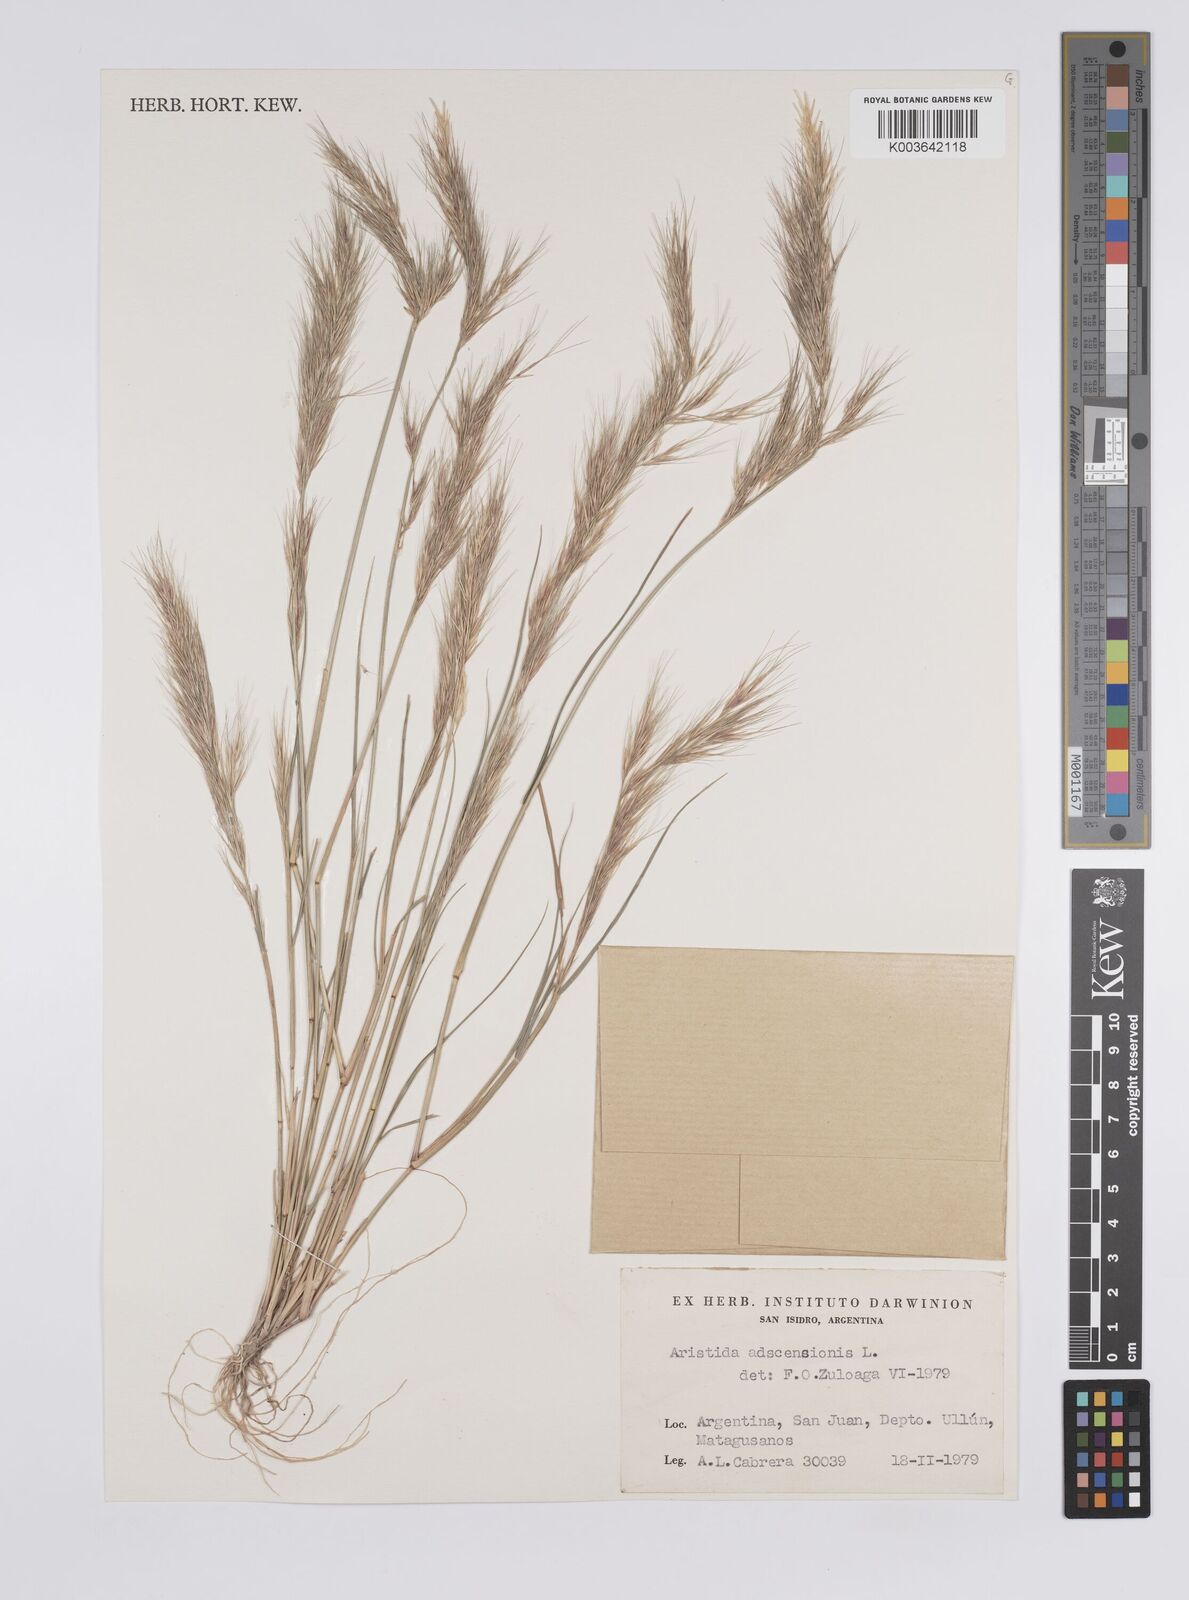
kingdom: Plantae
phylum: Tracheophyta
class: Liliopsida
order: Poales
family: Poaceae
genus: Aristida
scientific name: Aristida adscensionis
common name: Sixweeks threeawn
